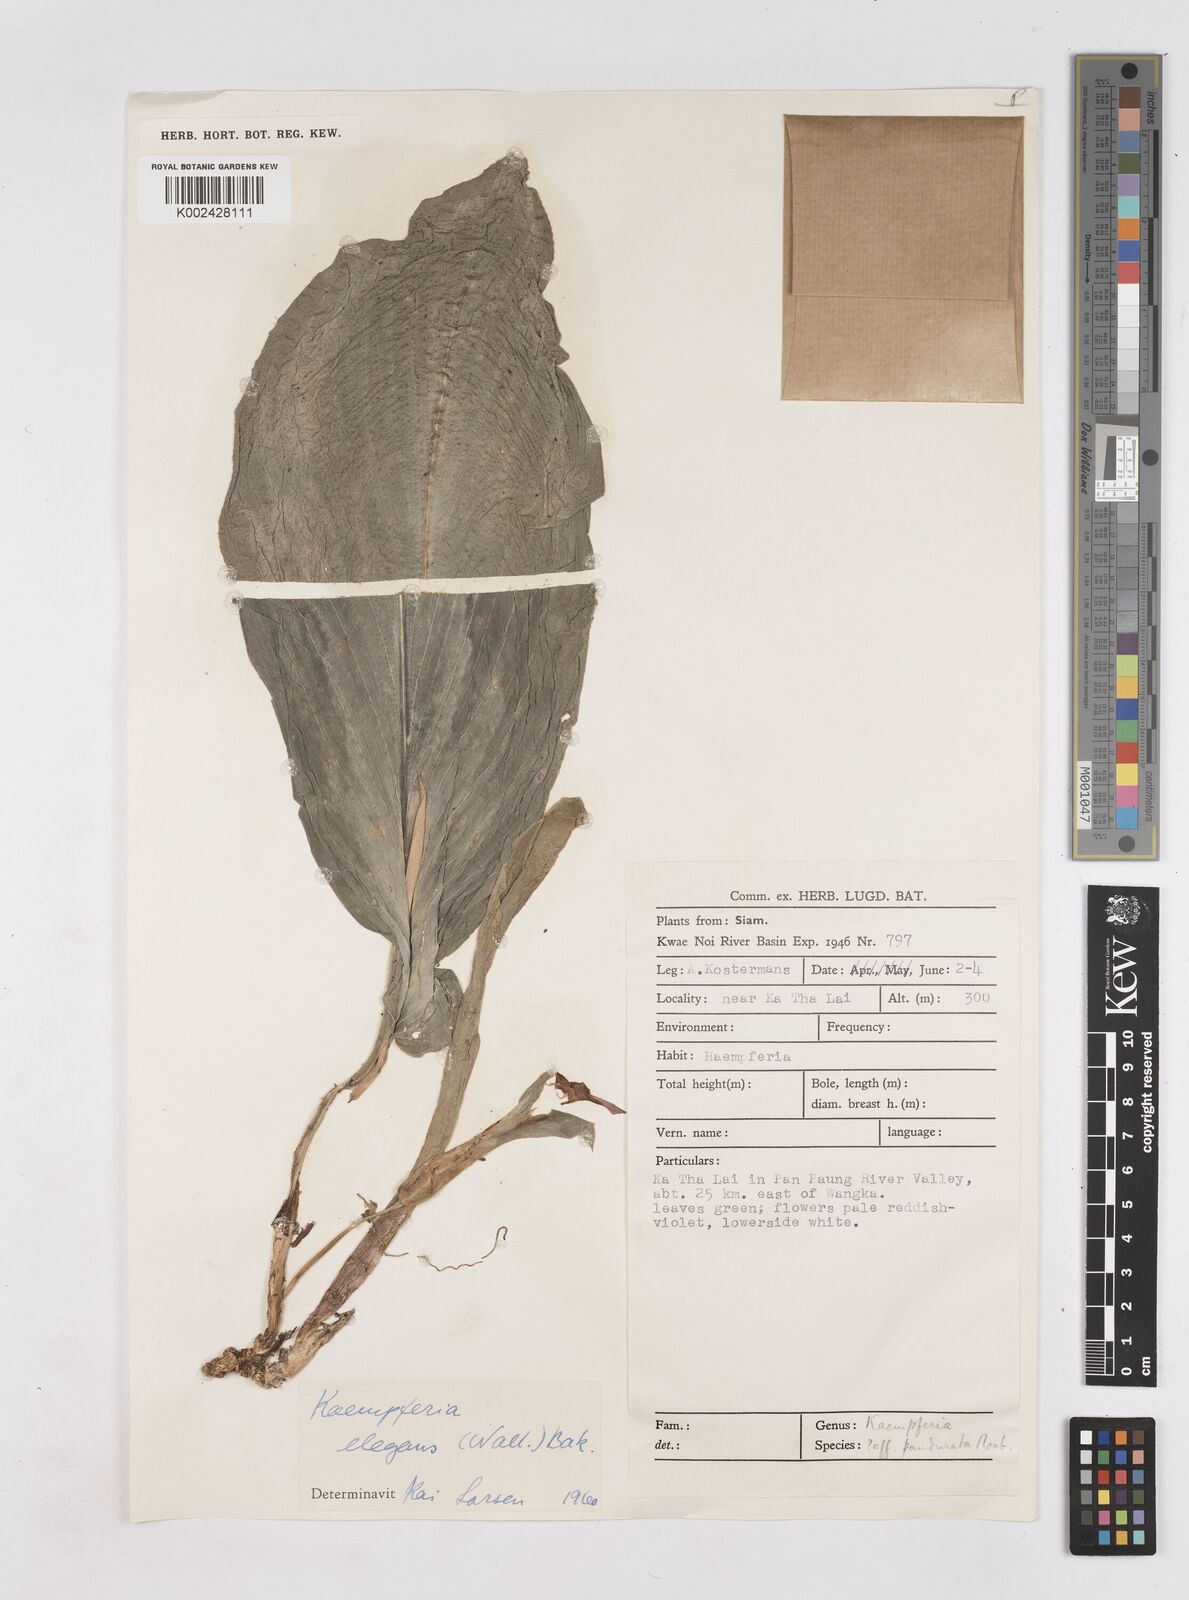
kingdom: Plantae
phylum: Tracheophyta
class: Liliopsida
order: Zingiberales
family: Zingiberaceae
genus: Kaempferia
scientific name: Kaempferia elegans
